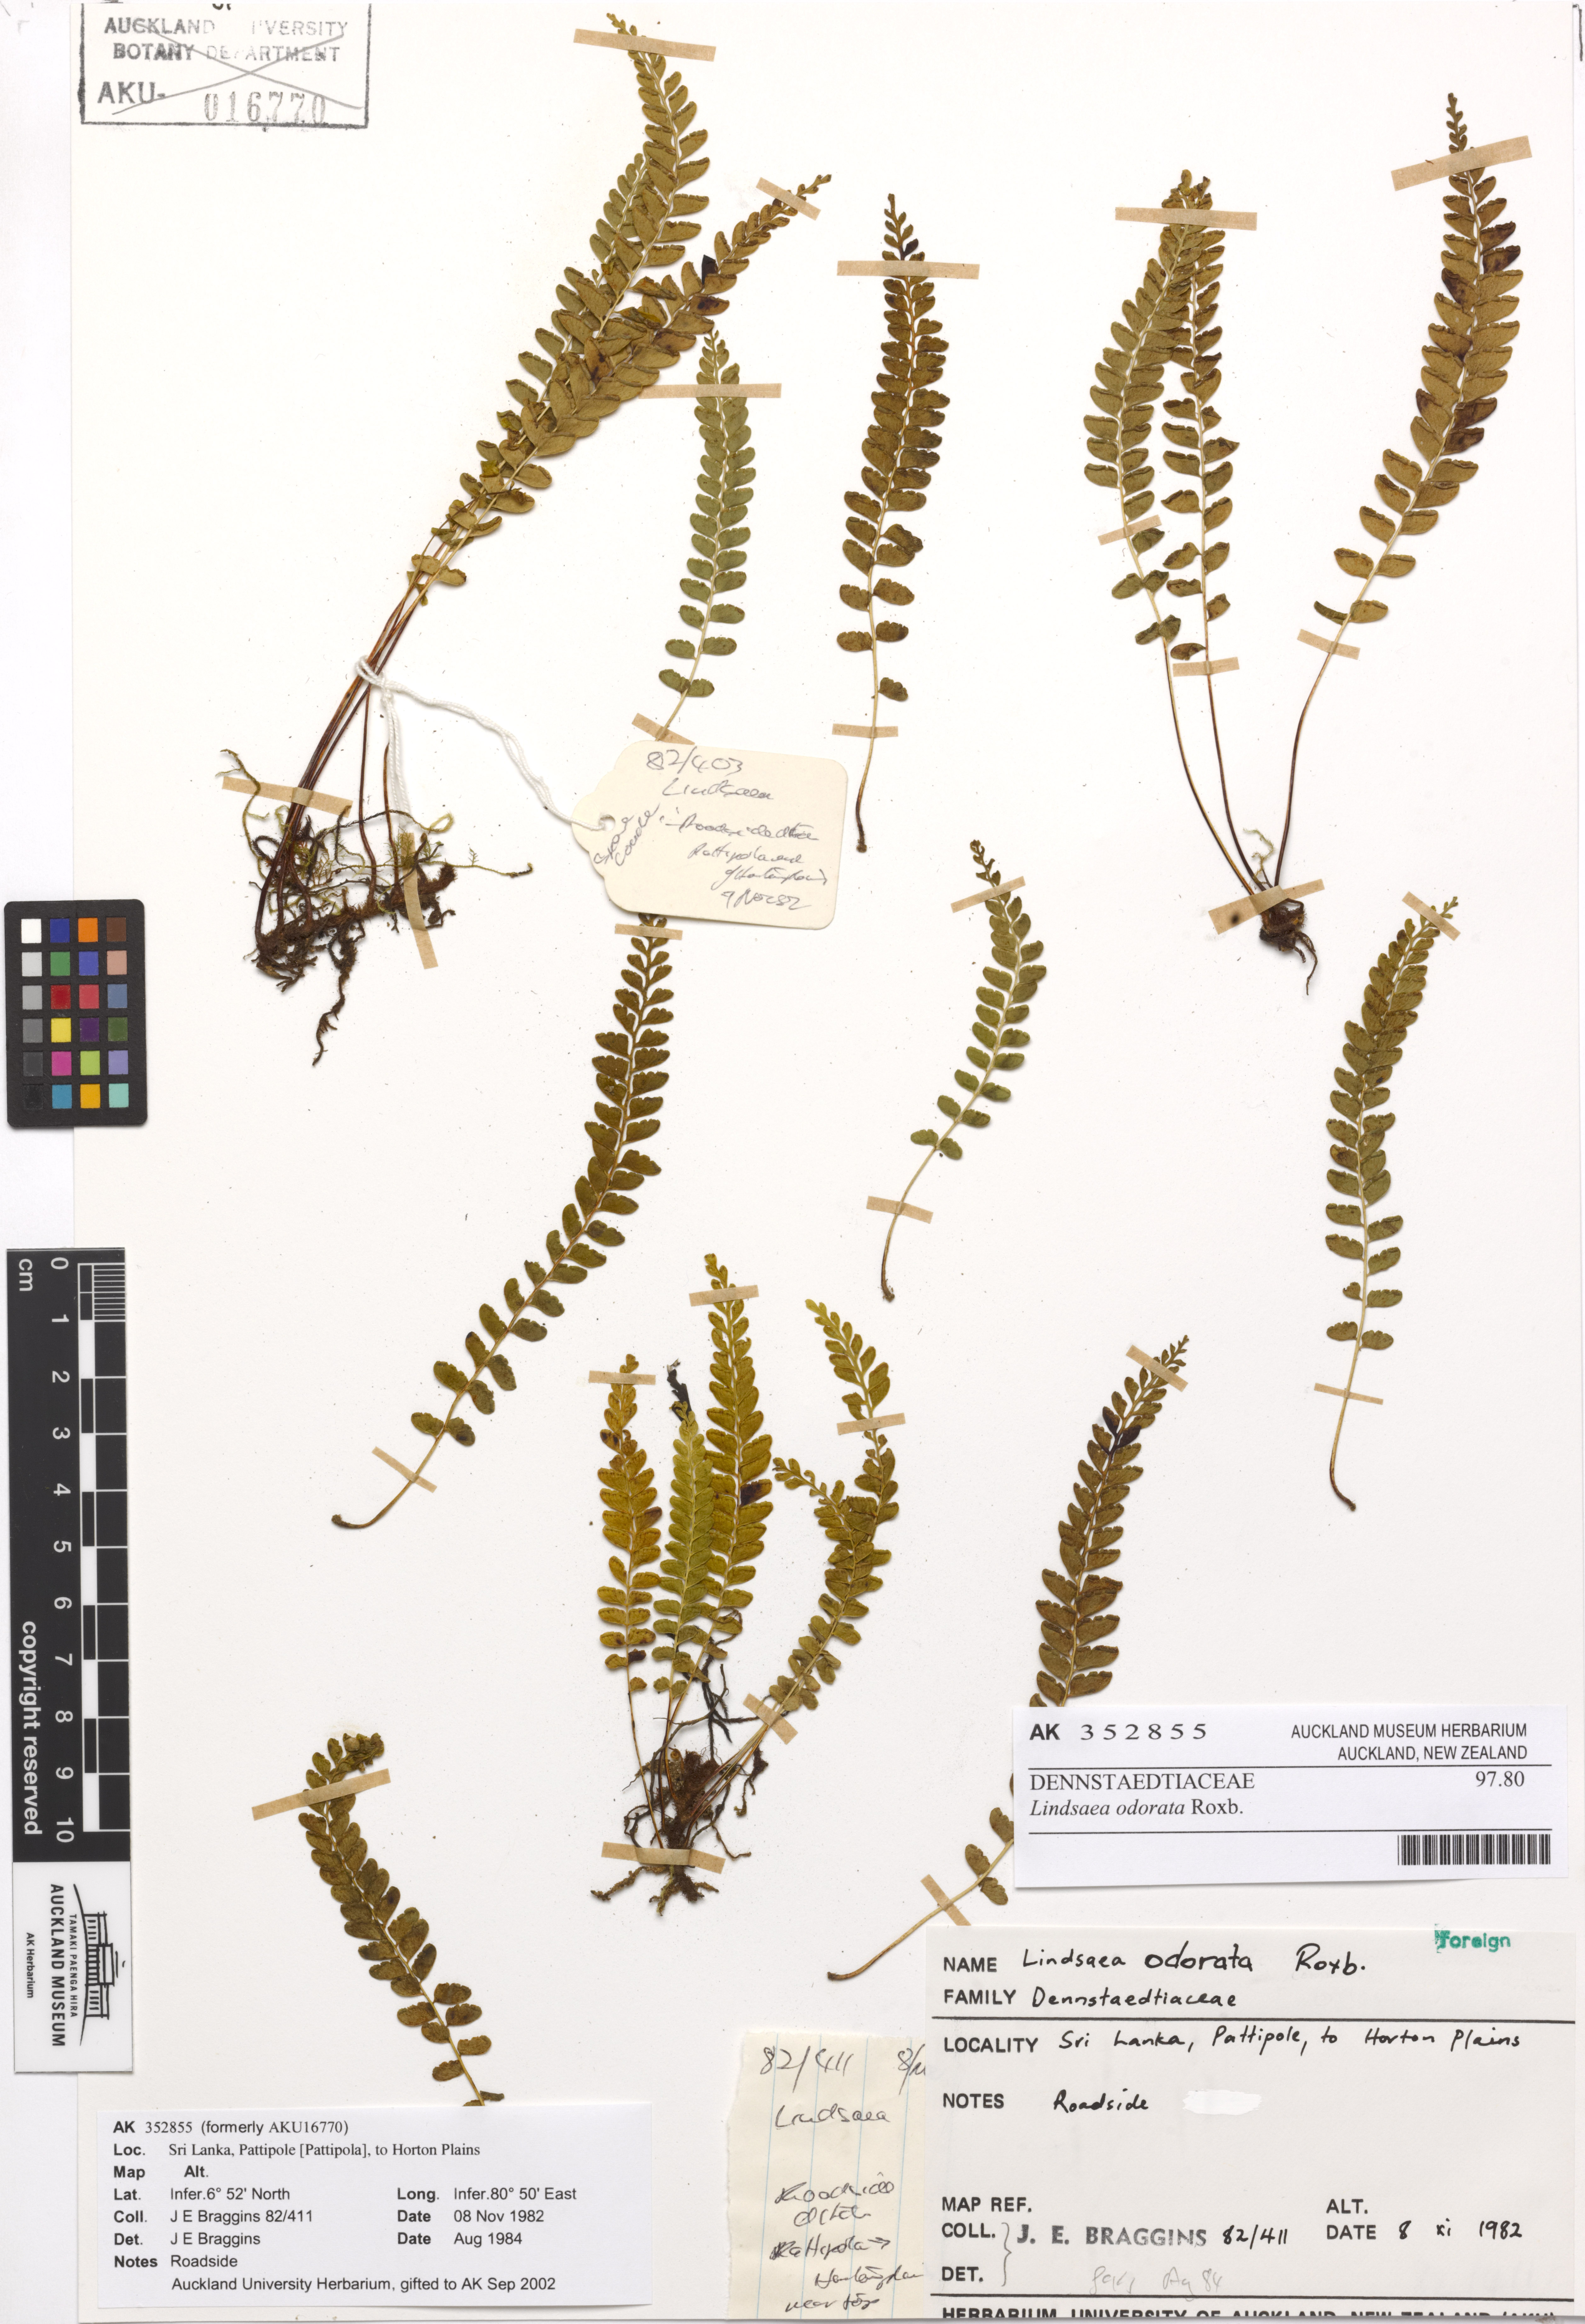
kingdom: Plantae
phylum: Tracheophyta
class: Polypodiopsida
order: Polypodiales
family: Lindsaeaceae
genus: Osmolindsaea
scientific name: Osmolindsaea odorata
